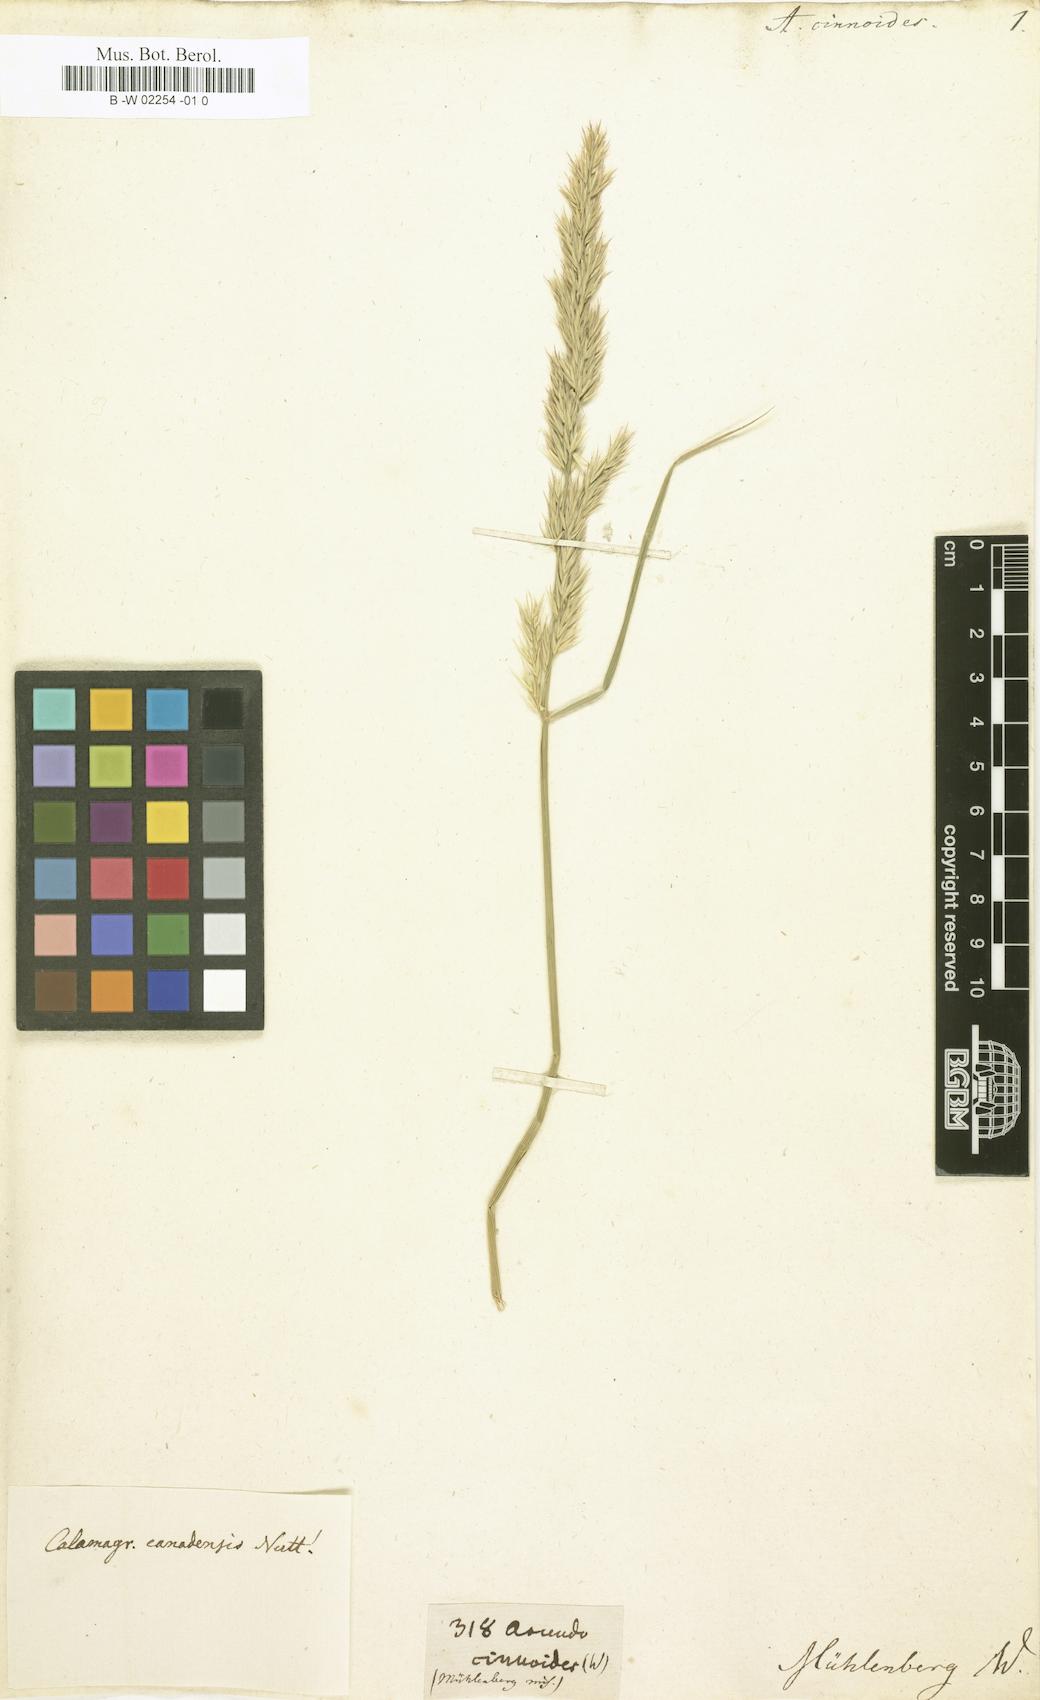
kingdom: Plantae
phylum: Tracheophyta
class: Liliopsida
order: Poales
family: Poaceae
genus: Calamagrostis
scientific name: Calamagrostis canadensis
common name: Canada bluejoint
